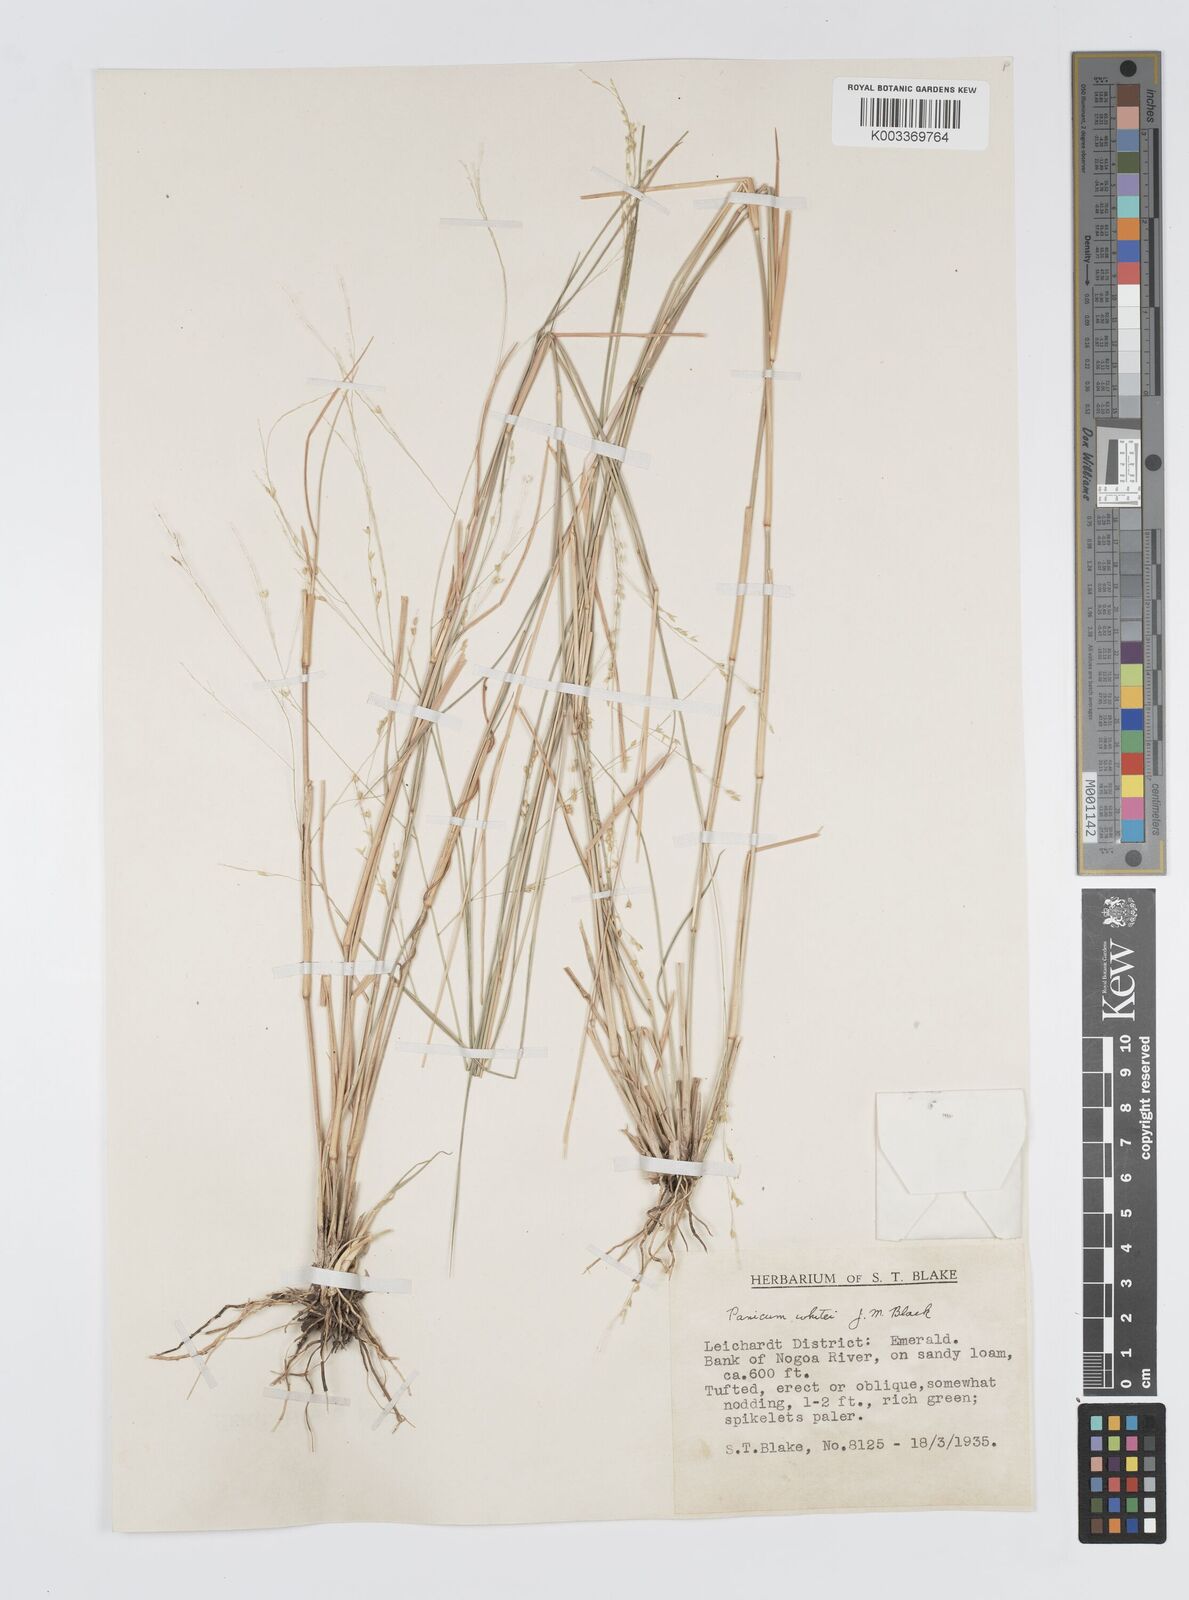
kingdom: Plantae
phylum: Tracheophyta
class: Liliopsida
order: Poales
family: Poaceae
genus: Panicum
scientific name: Panicum laevinode
